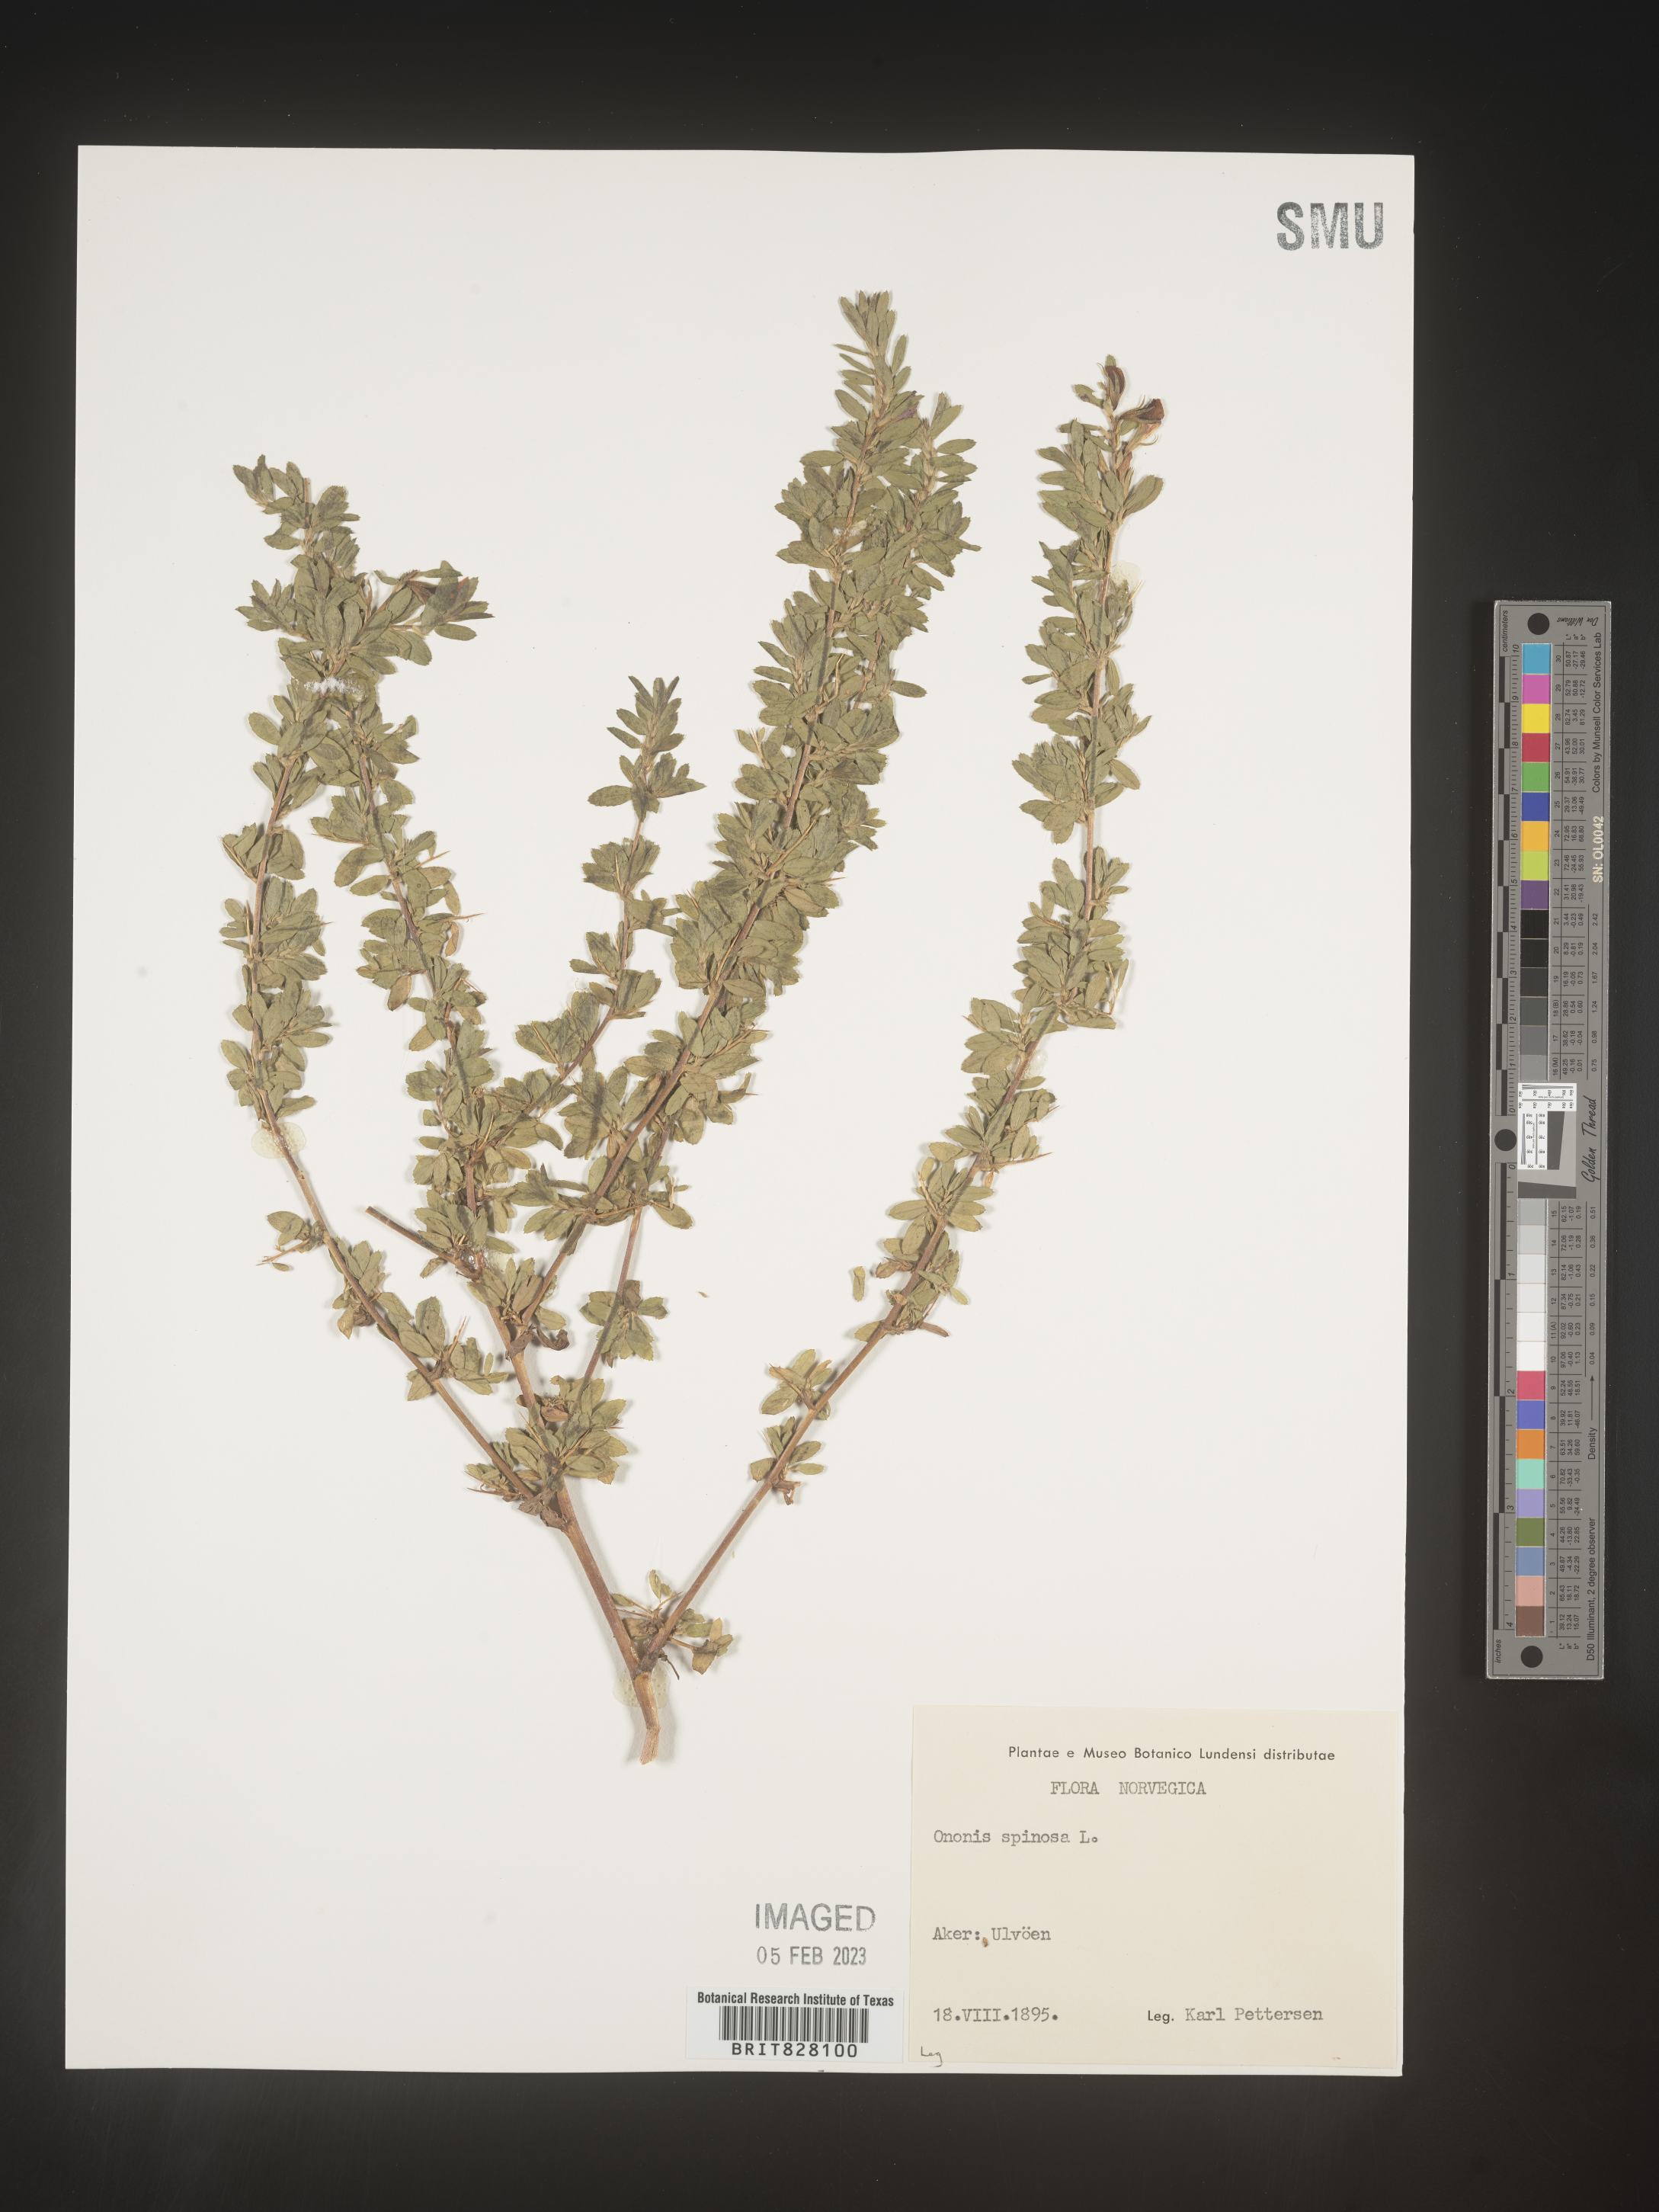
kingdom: Plantae
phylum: Tracheophyta
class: Magnoliopsida
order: Fabales
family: Fabaceae
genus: Ononis
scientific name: Ononis
